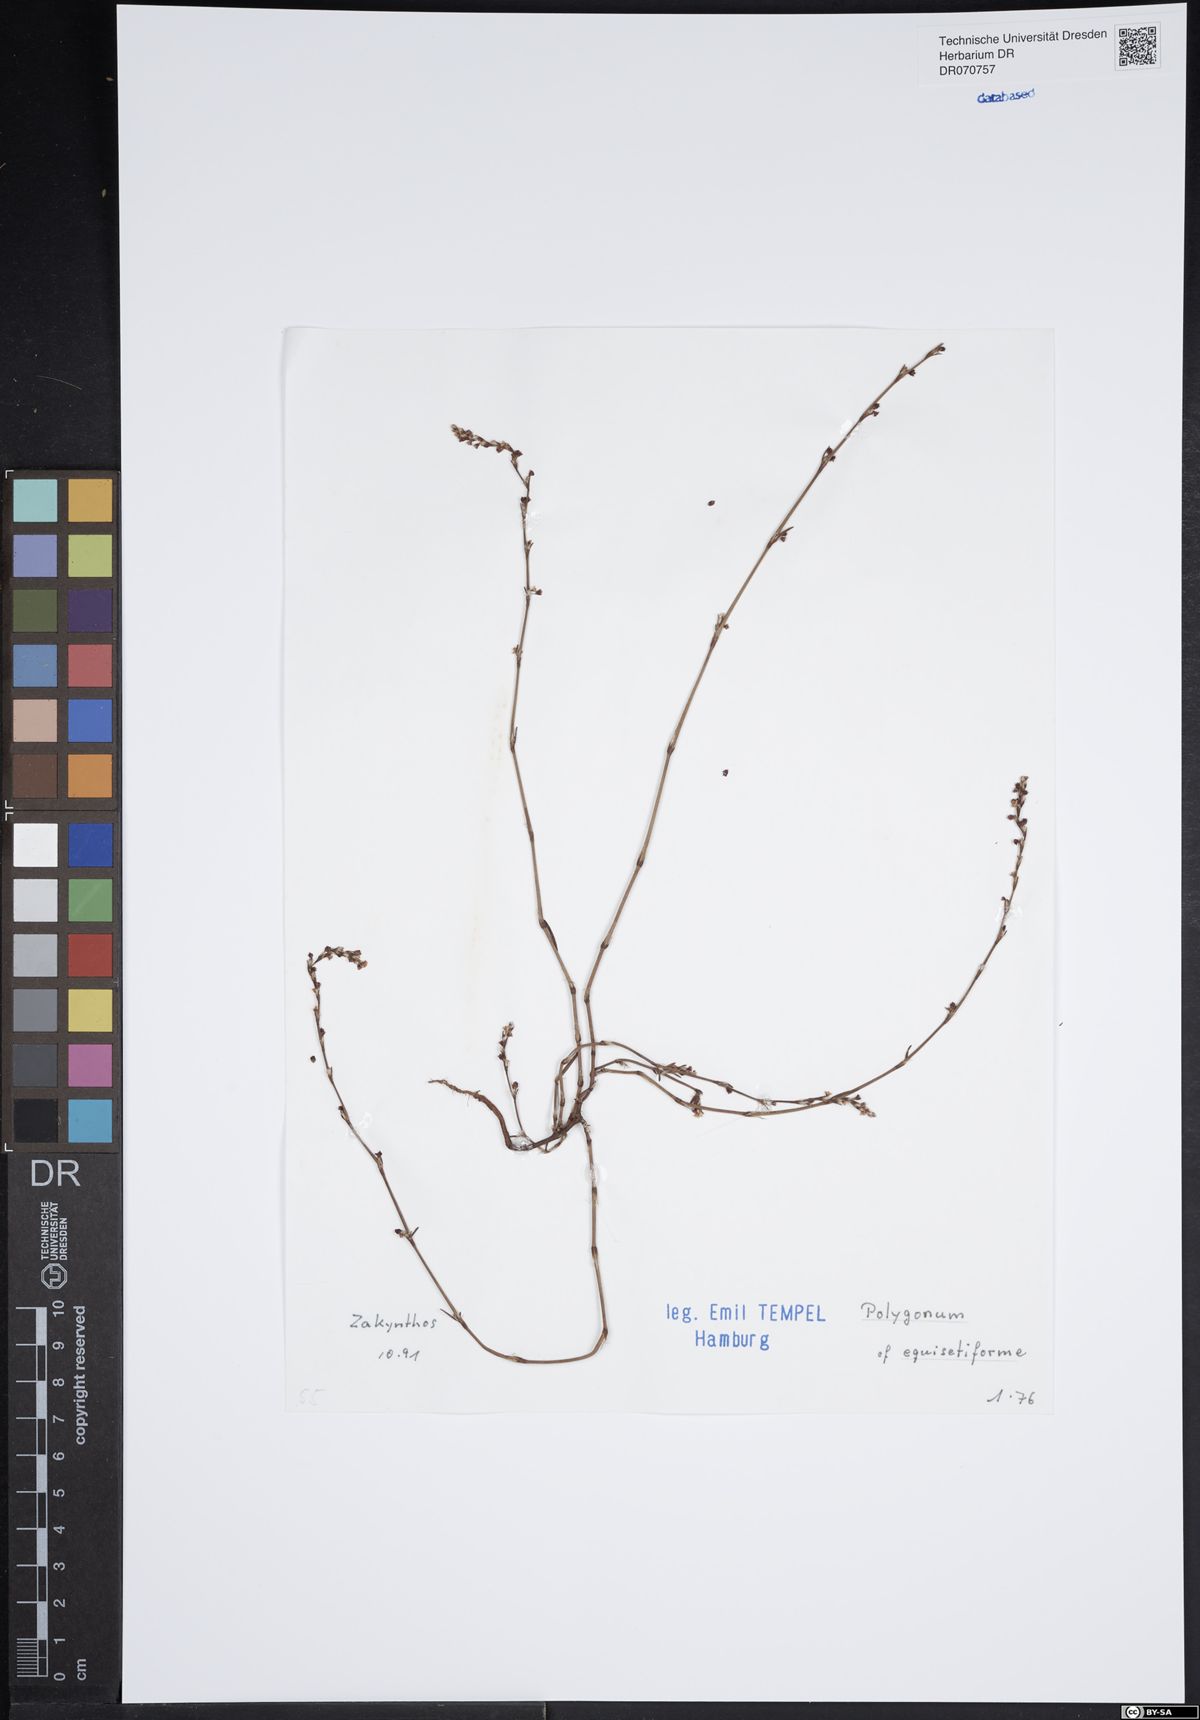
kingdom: Plantae
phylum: Tracheophyta
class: Magnoliopsida
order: Caryophyllales
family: Polygonaceae
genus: Polygonum
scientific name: Polygonum palaestinum
